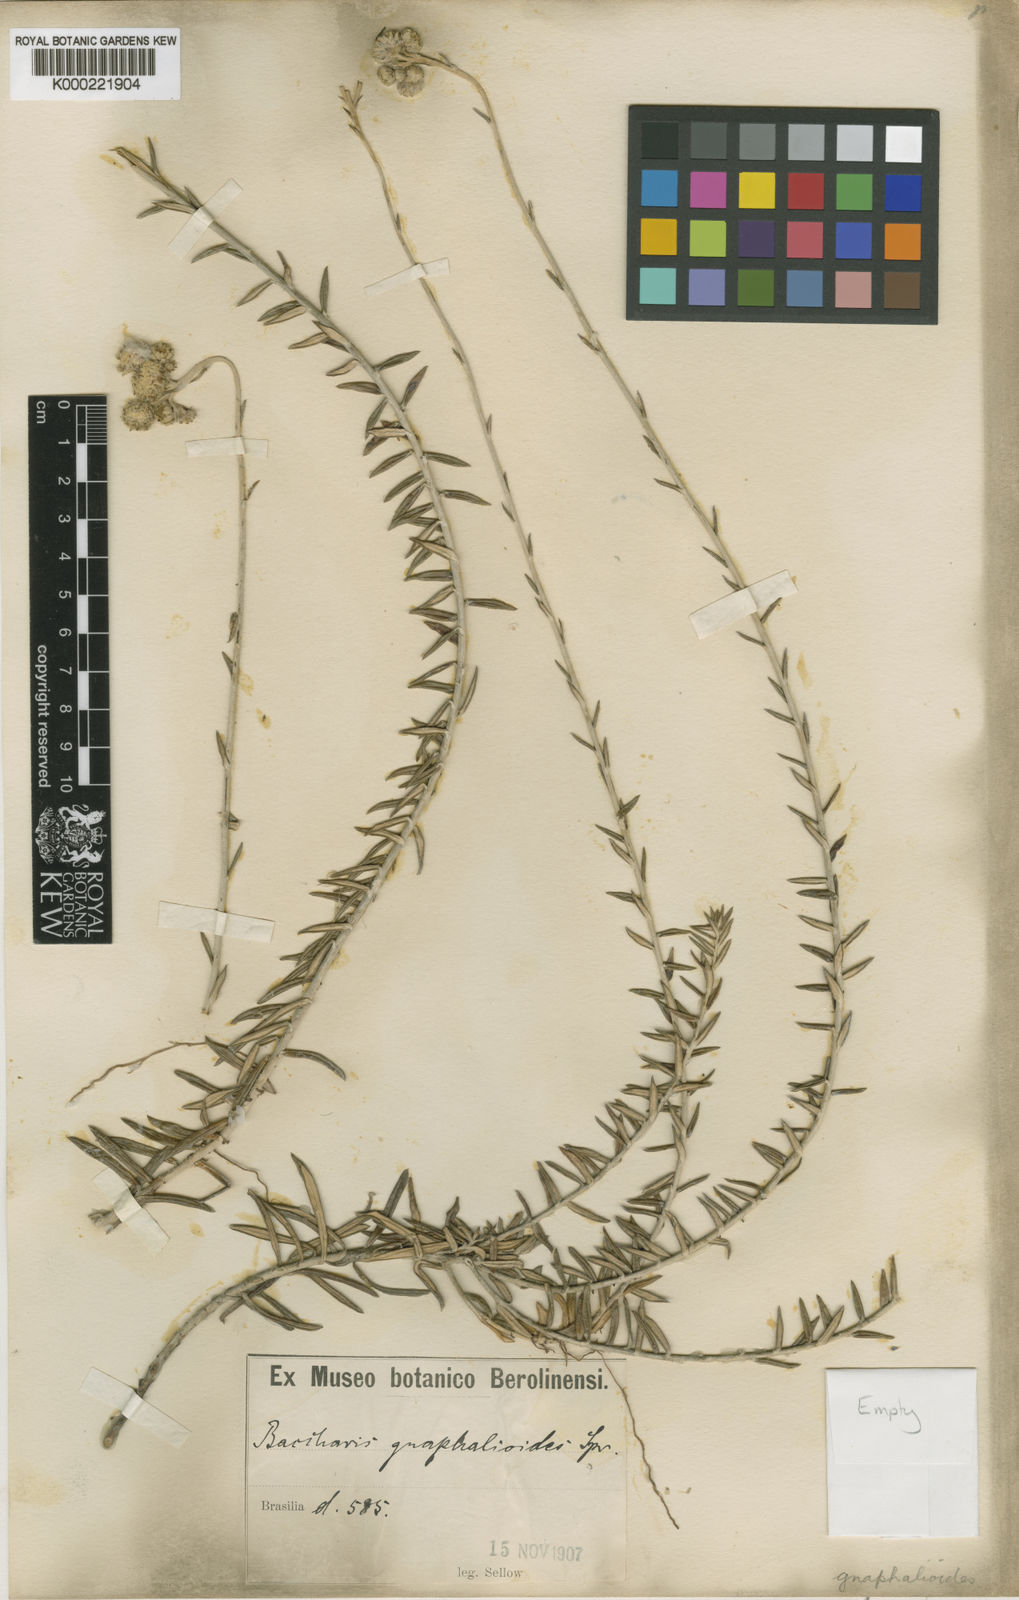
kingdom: Plantae
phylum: Tracheophyta
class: Magnoliopsida
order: Asterales
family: Asteraceae
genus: Lucilia
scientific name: Lucilia acutifolia
